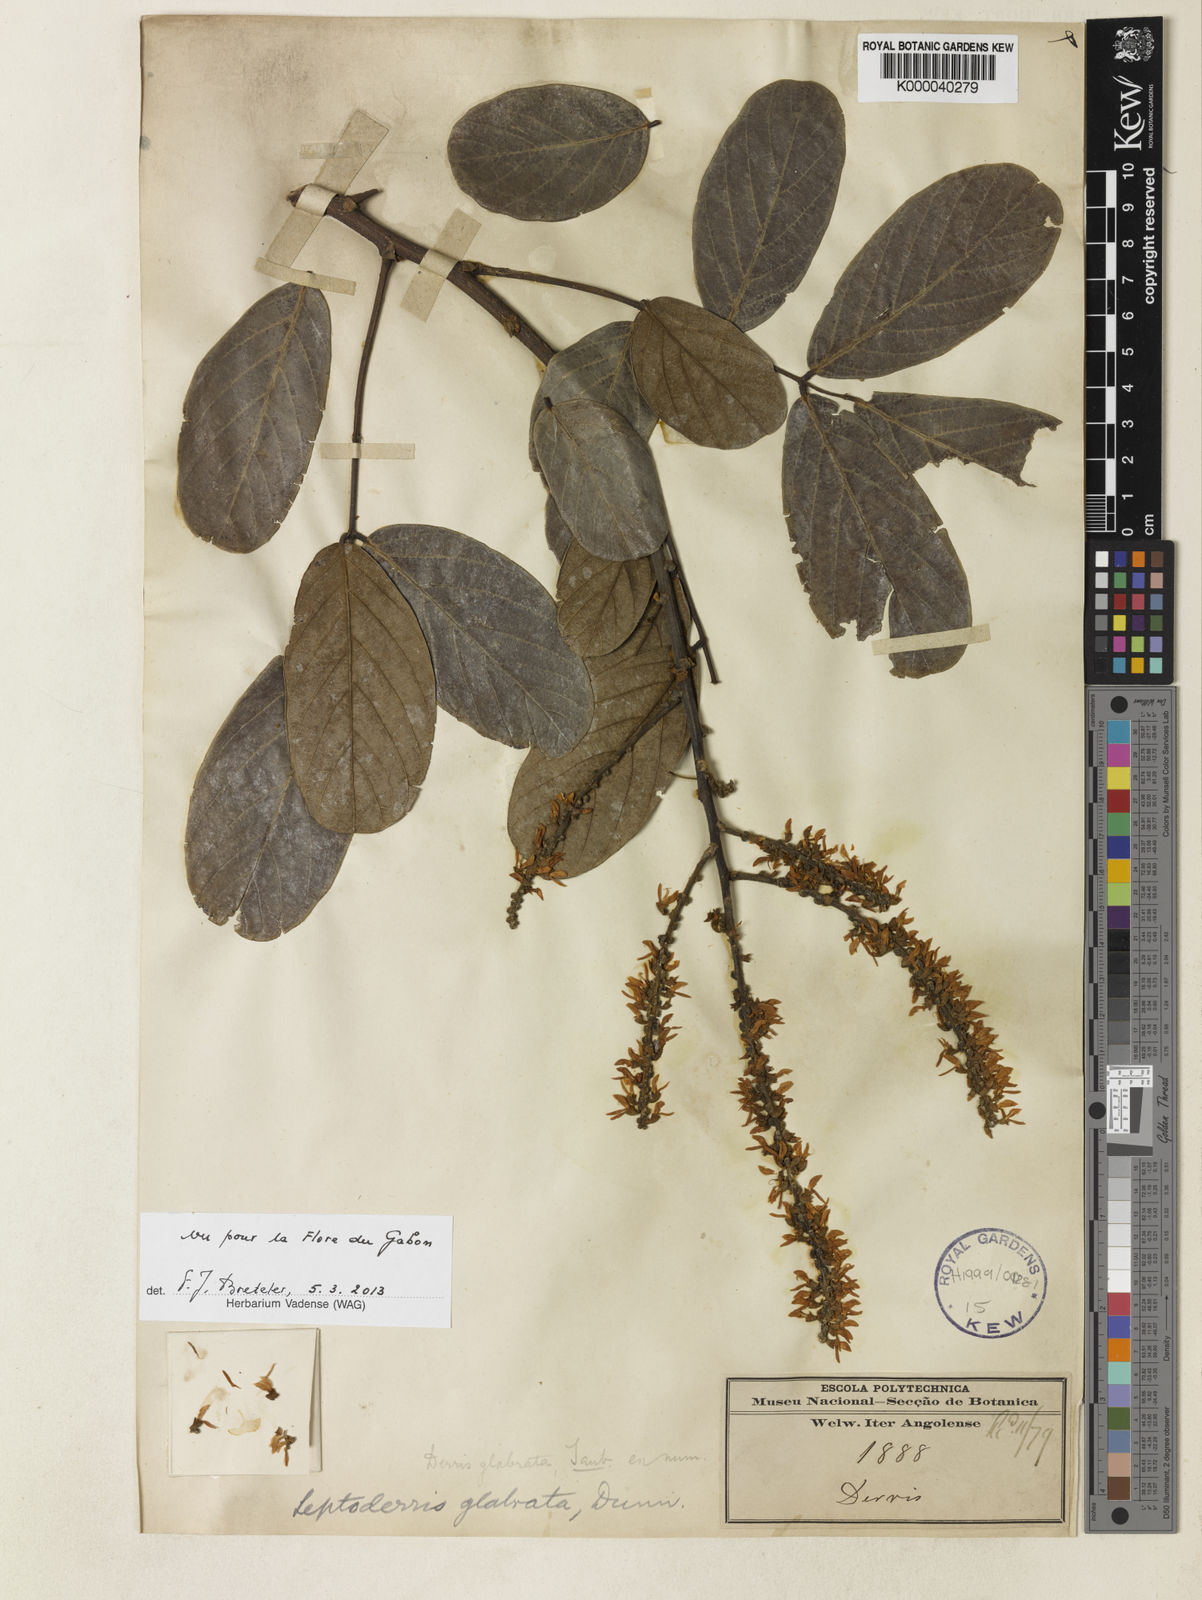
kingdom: Plantae
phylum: Tracheophyta
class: Magnoliopsida
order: Fabales
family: Fabaceae
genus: Leptoderris
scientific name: Leptoderris glabrata
